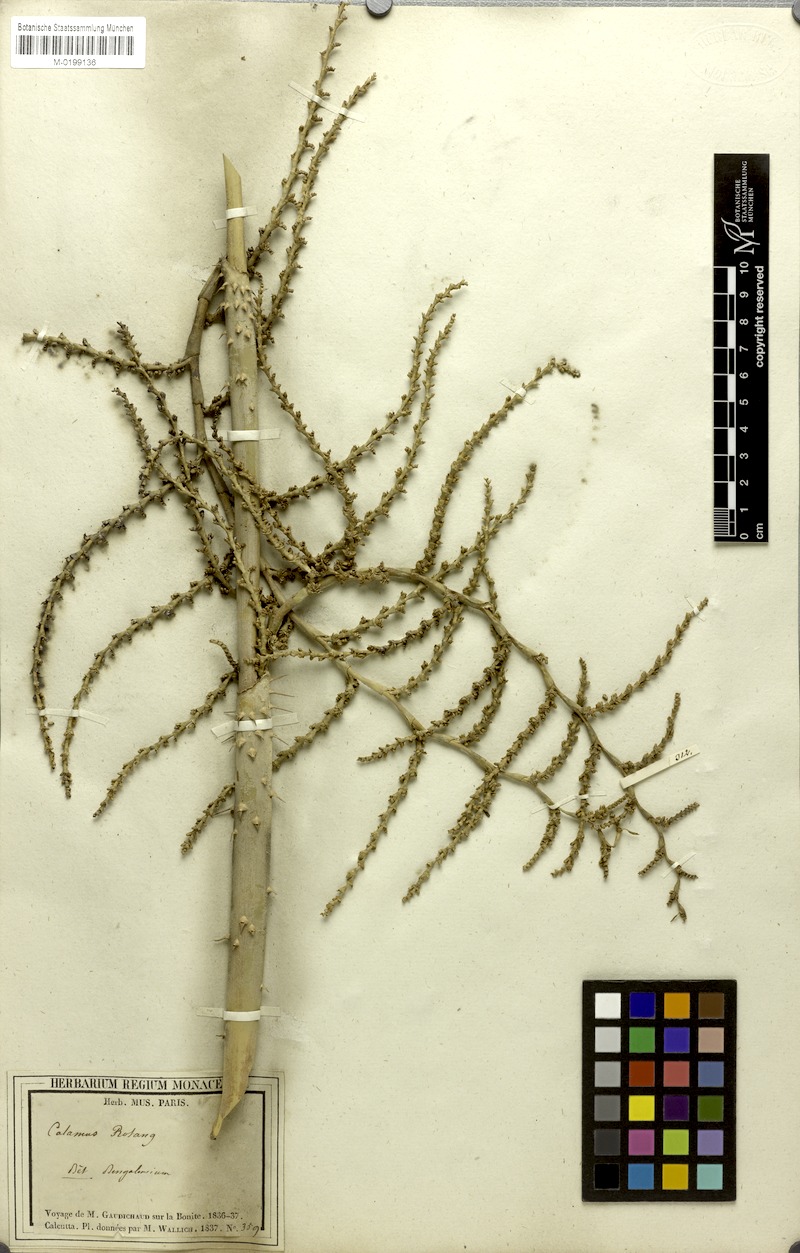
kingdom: Plantae
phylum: Tracheophyta
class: Liliopsida
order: Arecales
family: Arecaceae
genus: Calamus
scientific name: Calamus rotang
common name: Rattan cane
